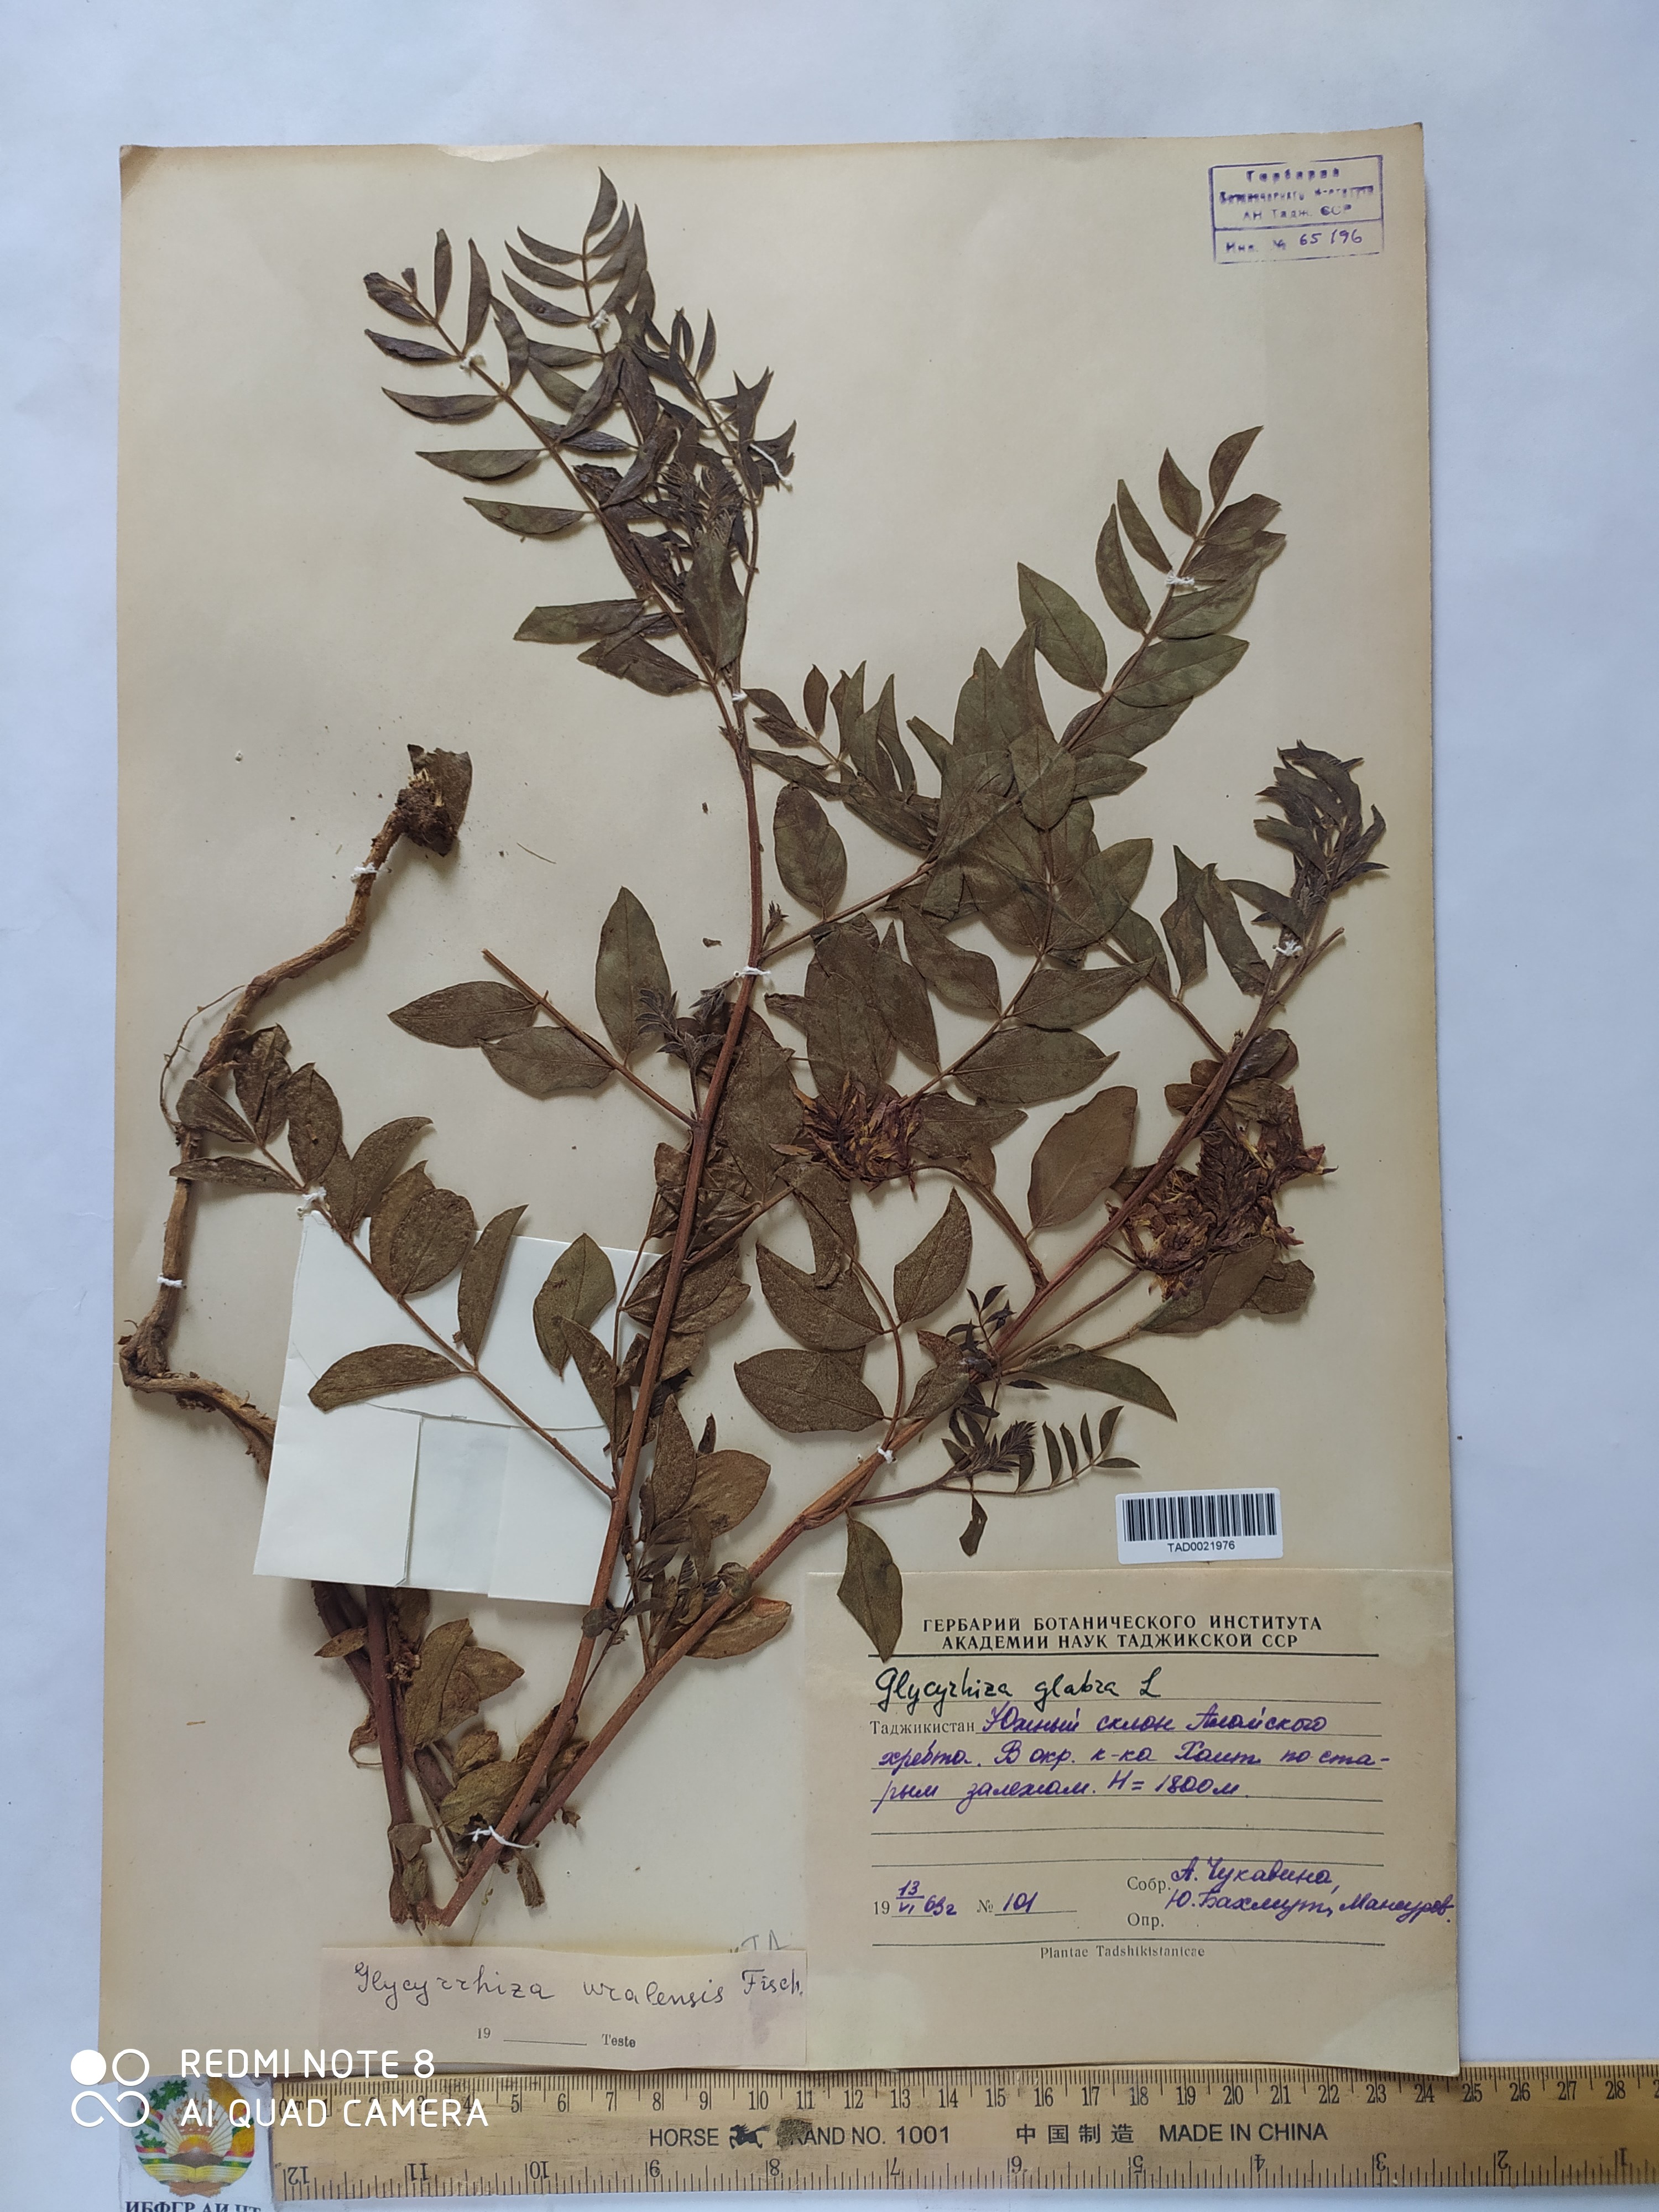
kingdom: Plantae
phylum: Tracheophyta
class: Magnoliopsida
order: Fabales
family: Fabaceae
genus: Glycyrrhiza
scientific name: Glycyrrhiza glabra
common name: Liquorice
